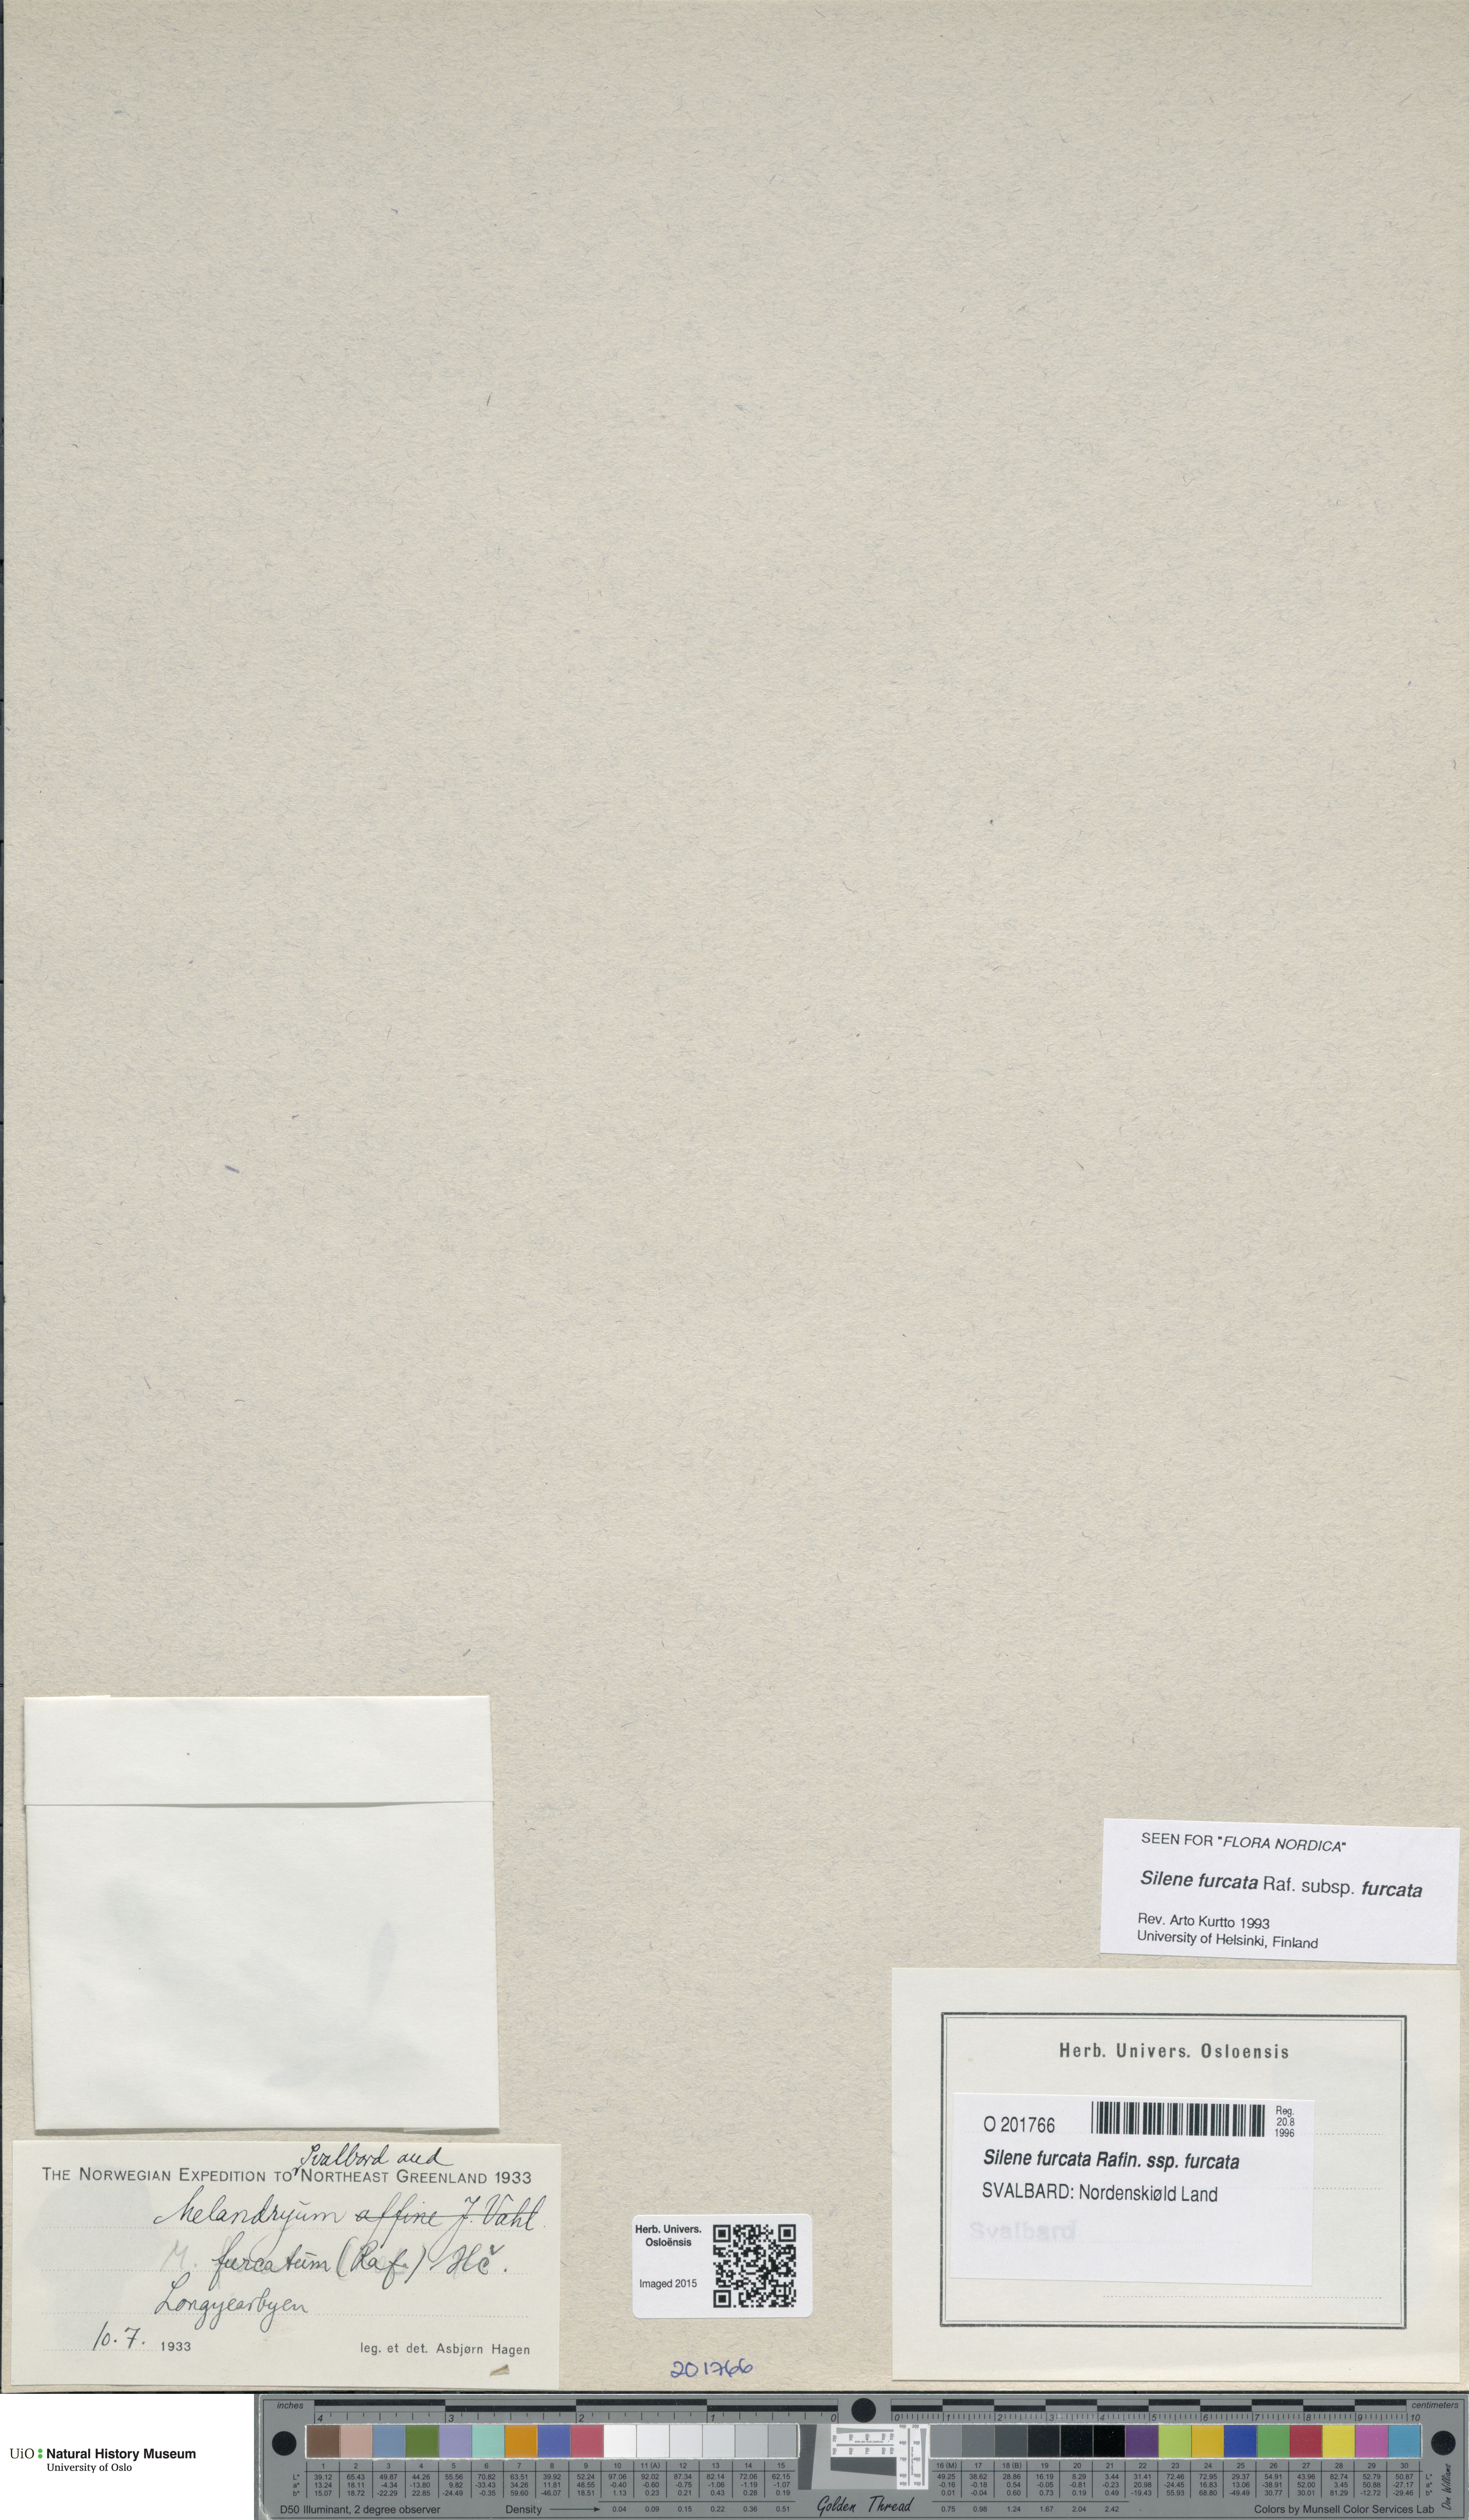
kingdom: Plantae
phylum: Tracheophyta
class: Magnoliopsida
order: Caryophyllales
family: Caryophyllaceae
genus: Silene
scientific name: Silene involucrata
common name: Greater arctic campion
